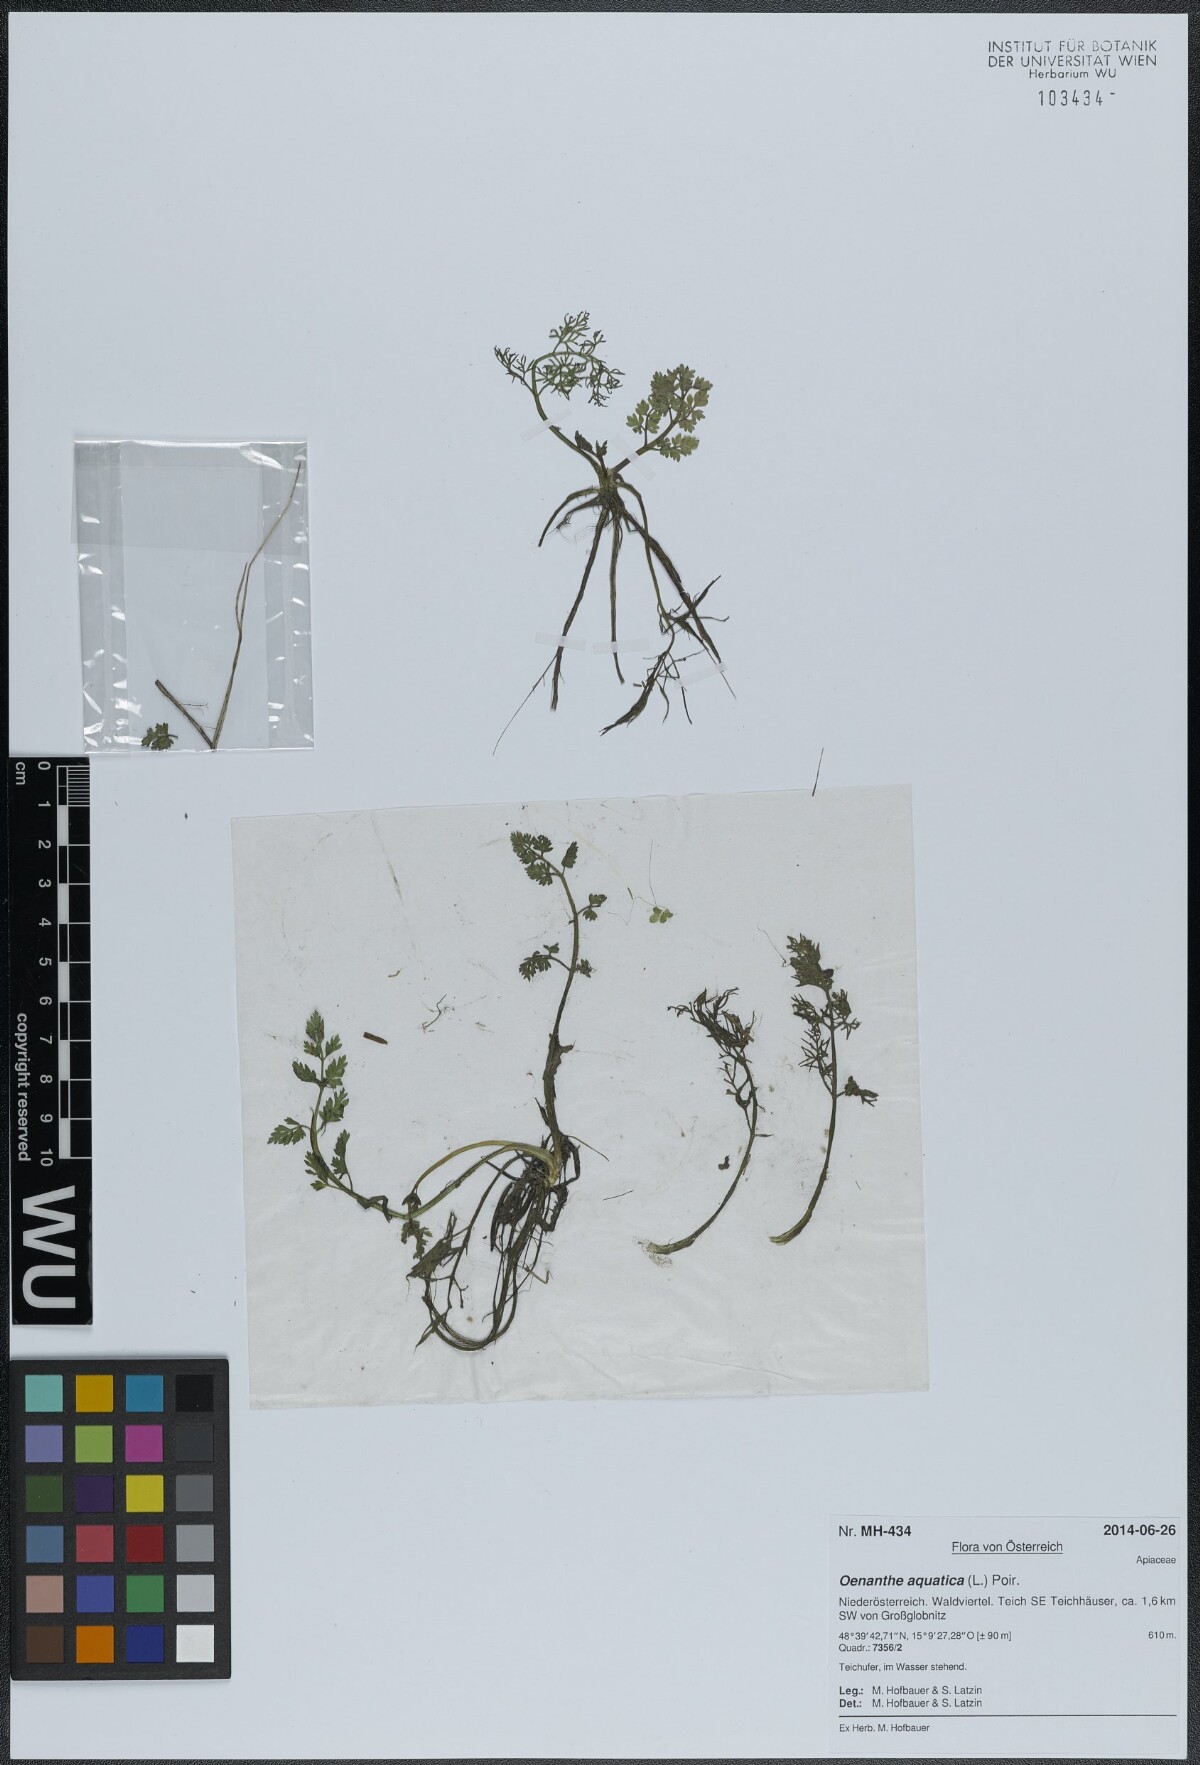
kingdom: Plantae
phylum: Tracheophyta
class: Magnoliopsida
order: Apiales
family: Apiaceae
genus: Oenanthe
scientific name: Oenanthe aquatica
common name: Fine-leaved water-dropwort
